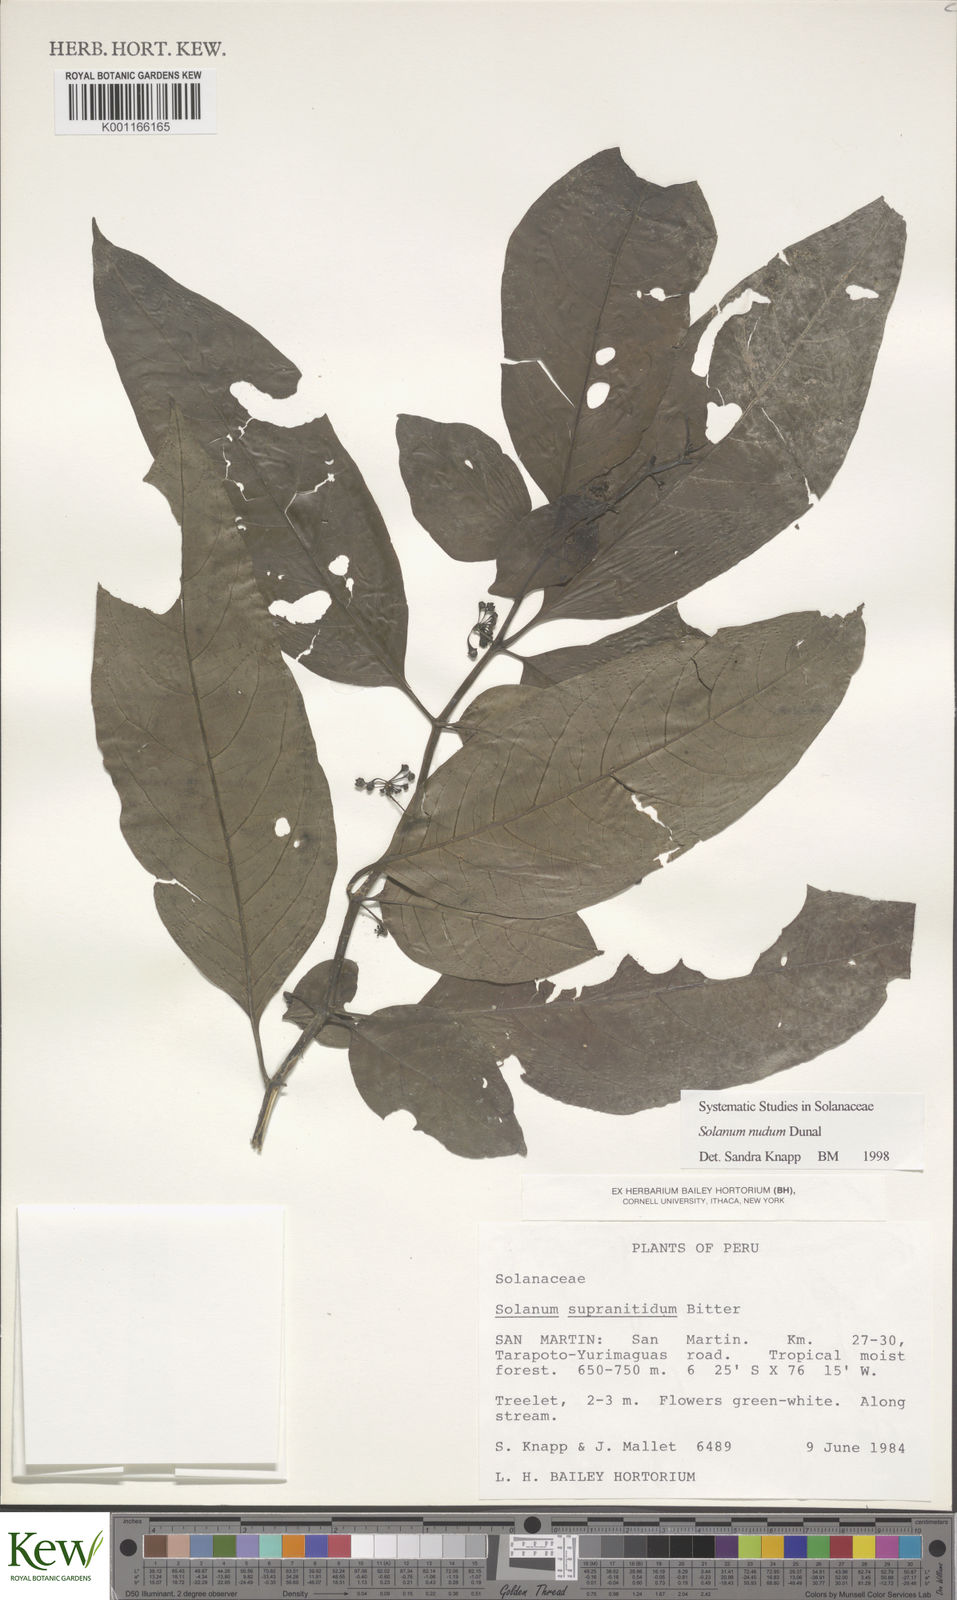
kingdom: Plantae
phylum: Tracheophyta
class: Magnoliopsida
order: Solanales
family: Solanaceae
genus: Solanum
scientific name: Solanum nudum
